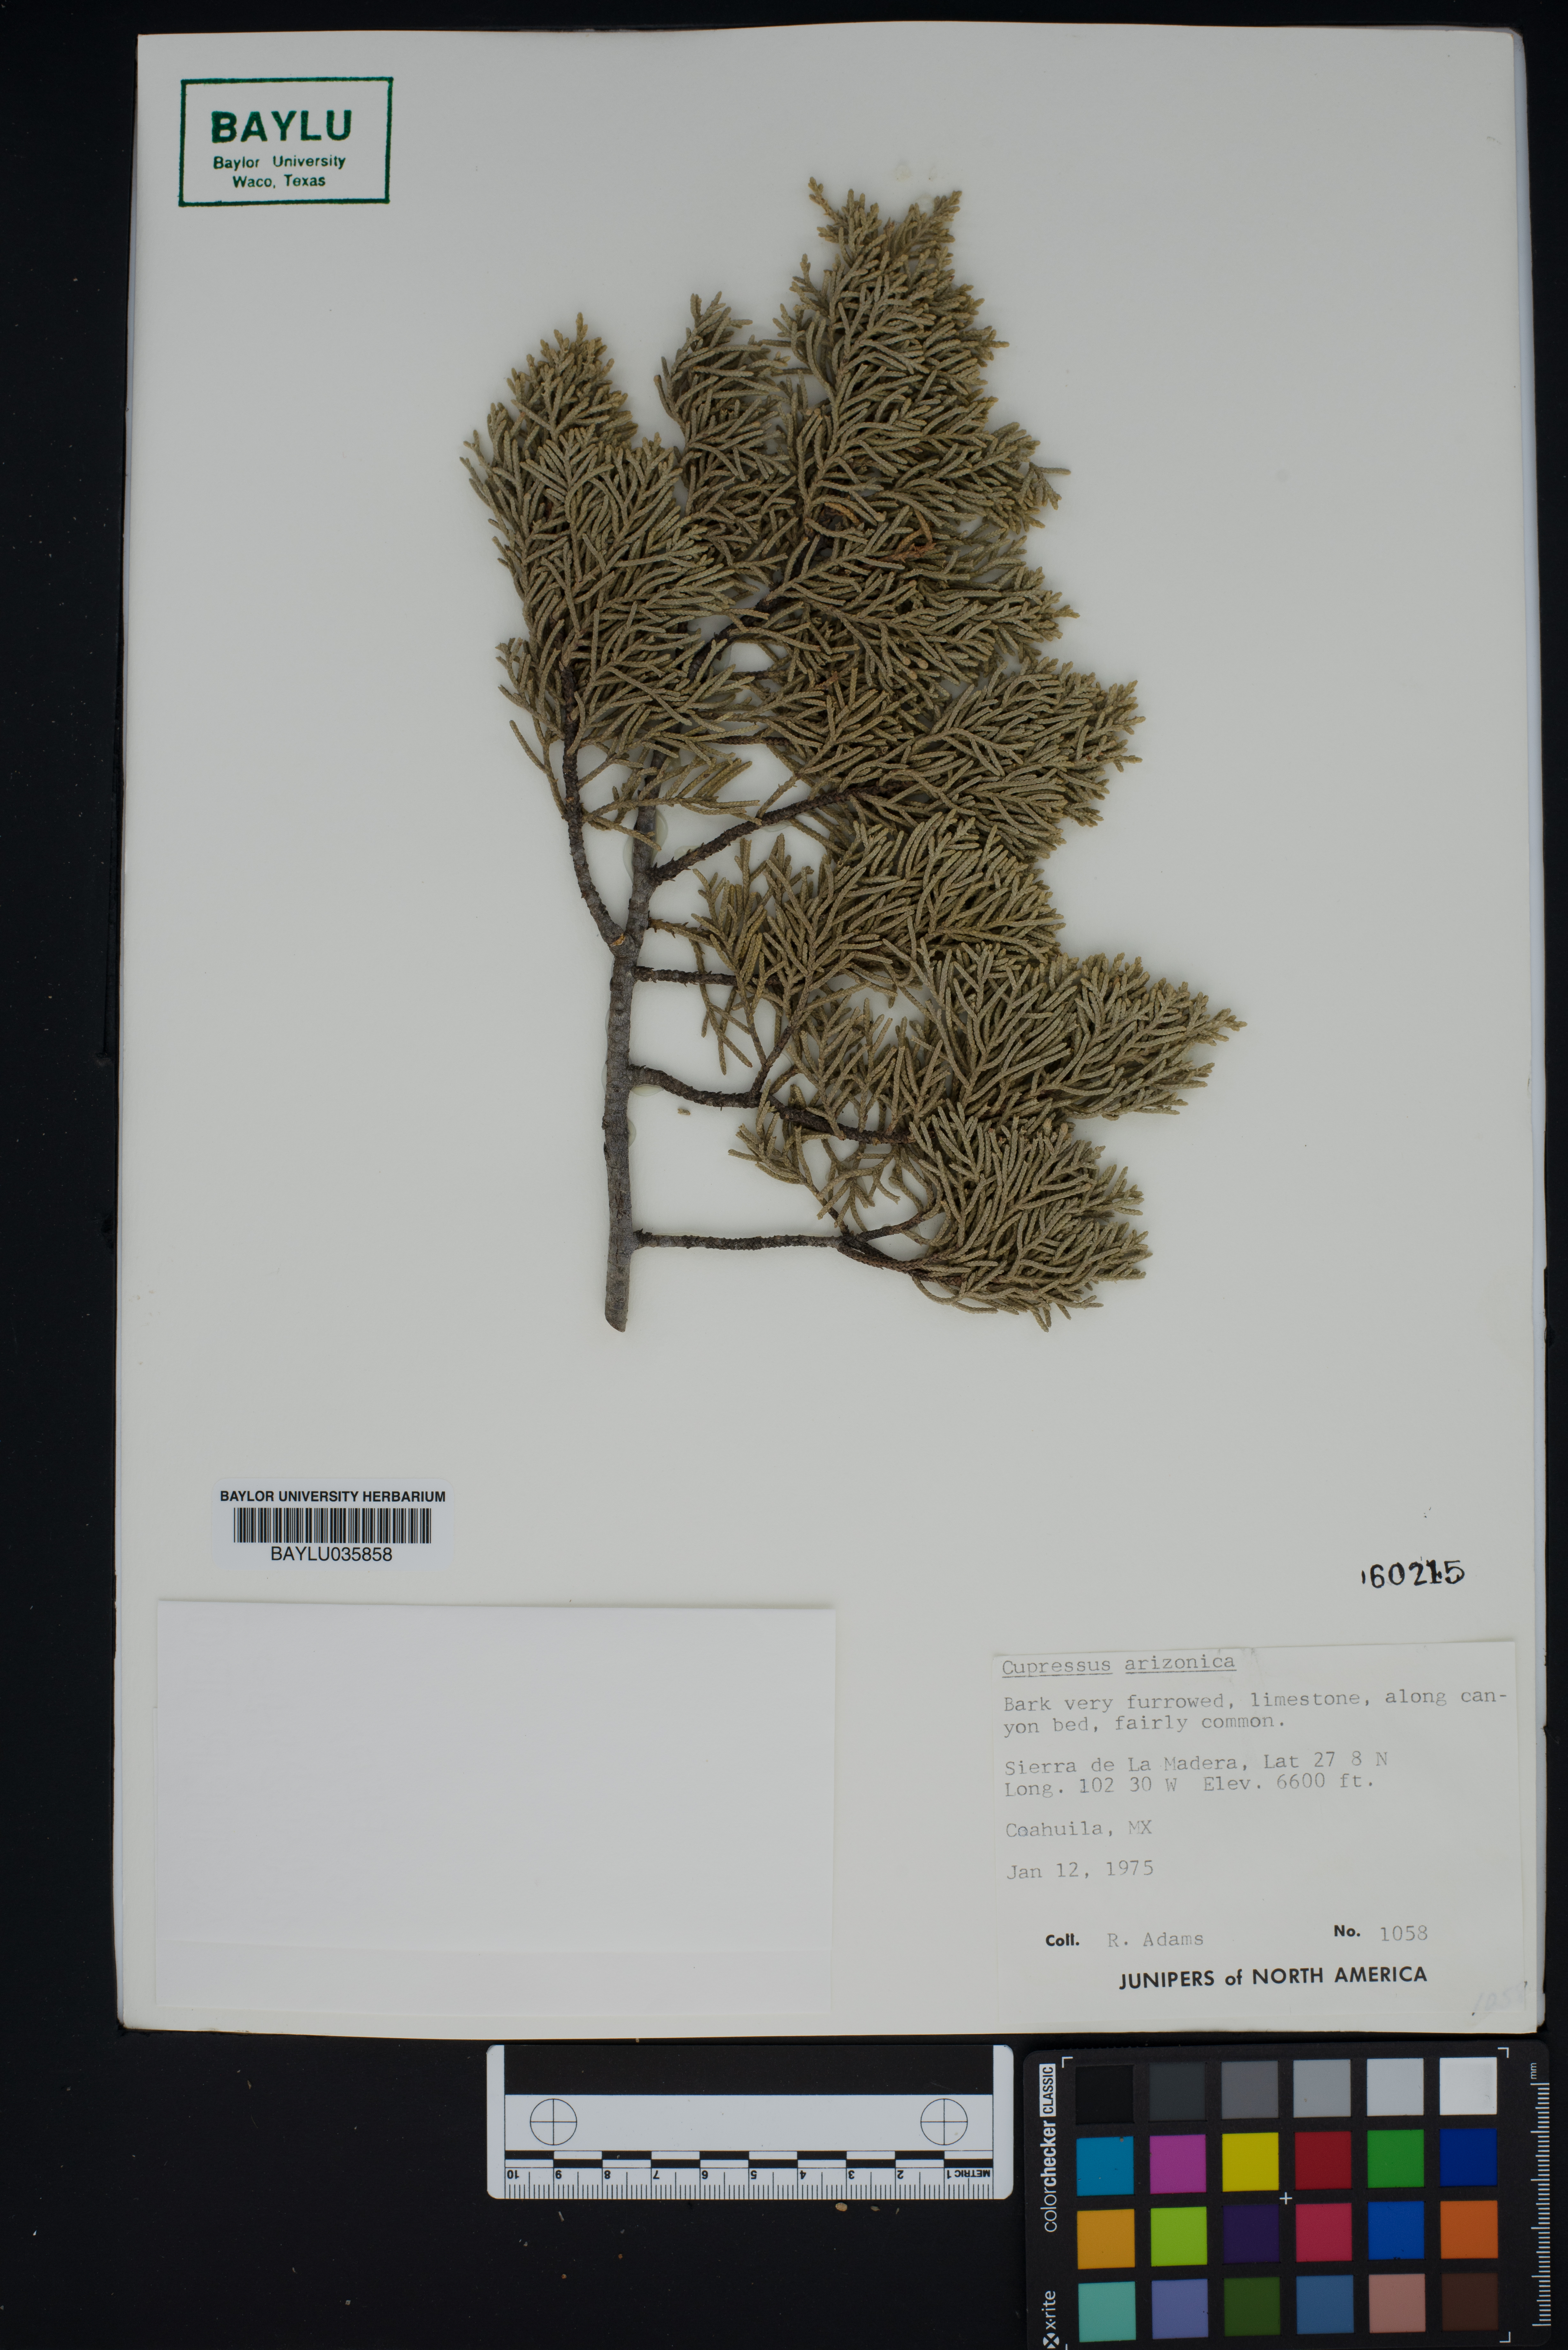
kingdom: Plantae
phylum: Tracheophyta
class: Pinopsida
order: Pinales
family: Cupressaceae
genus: Cupressus
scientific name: Cupressus arizonica
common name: Arizona cypress
